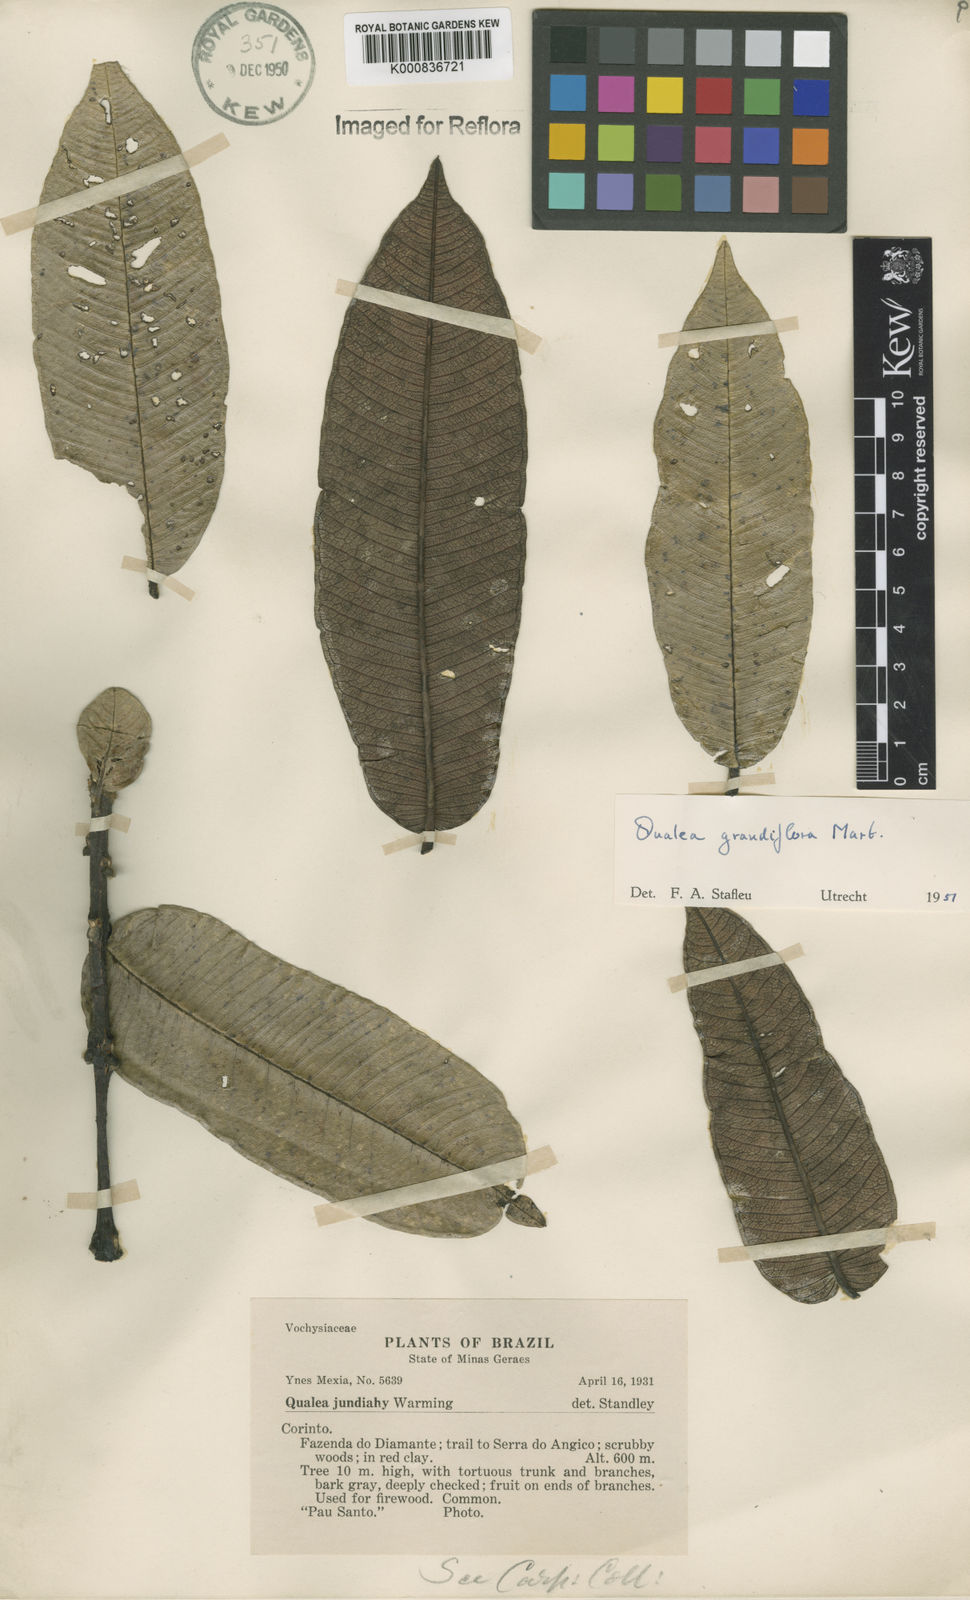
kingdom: Plantae
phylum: Tracheophyta
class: Magnoliopsida
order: Myrtales
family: Vochysiaceae
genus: Qualea
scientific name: Qualea grandiflora
